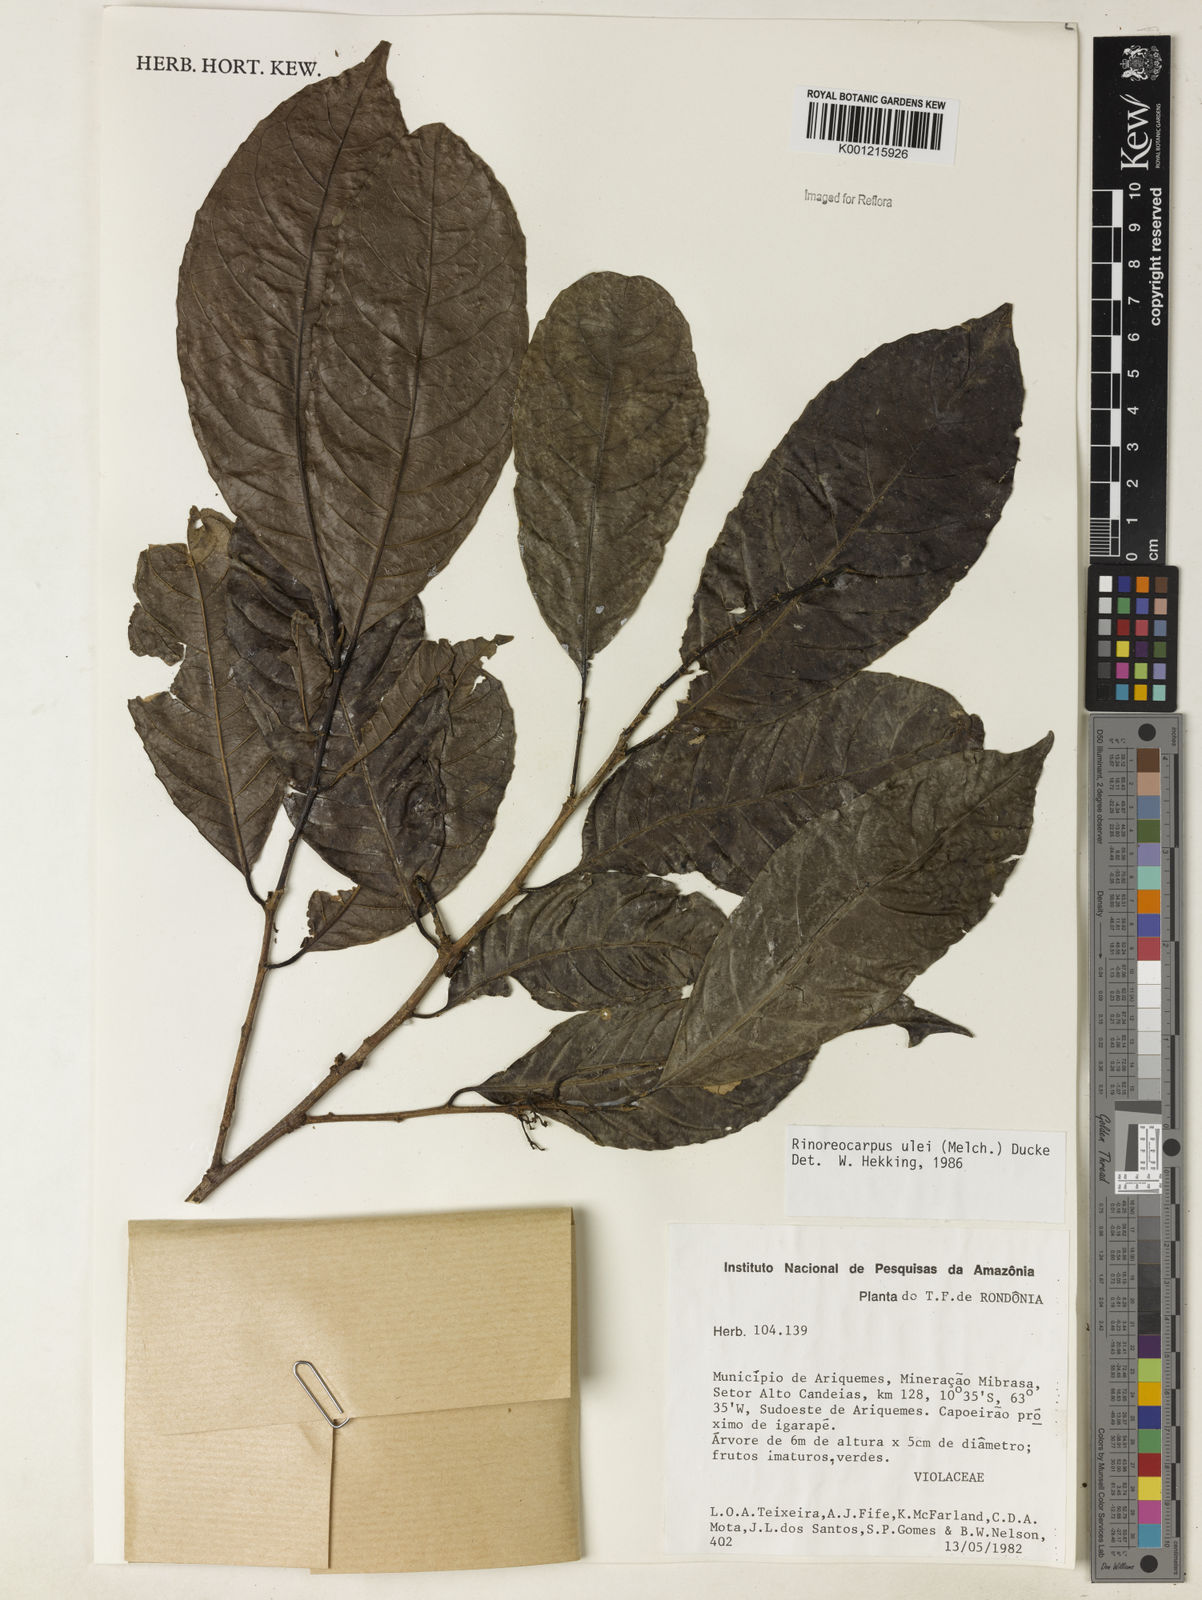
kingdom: Plantae
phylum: Tracheophyta
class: Magnoliopsida
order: Malpighiales
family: Violaceae
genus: Rinorea
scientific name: Rinorea
